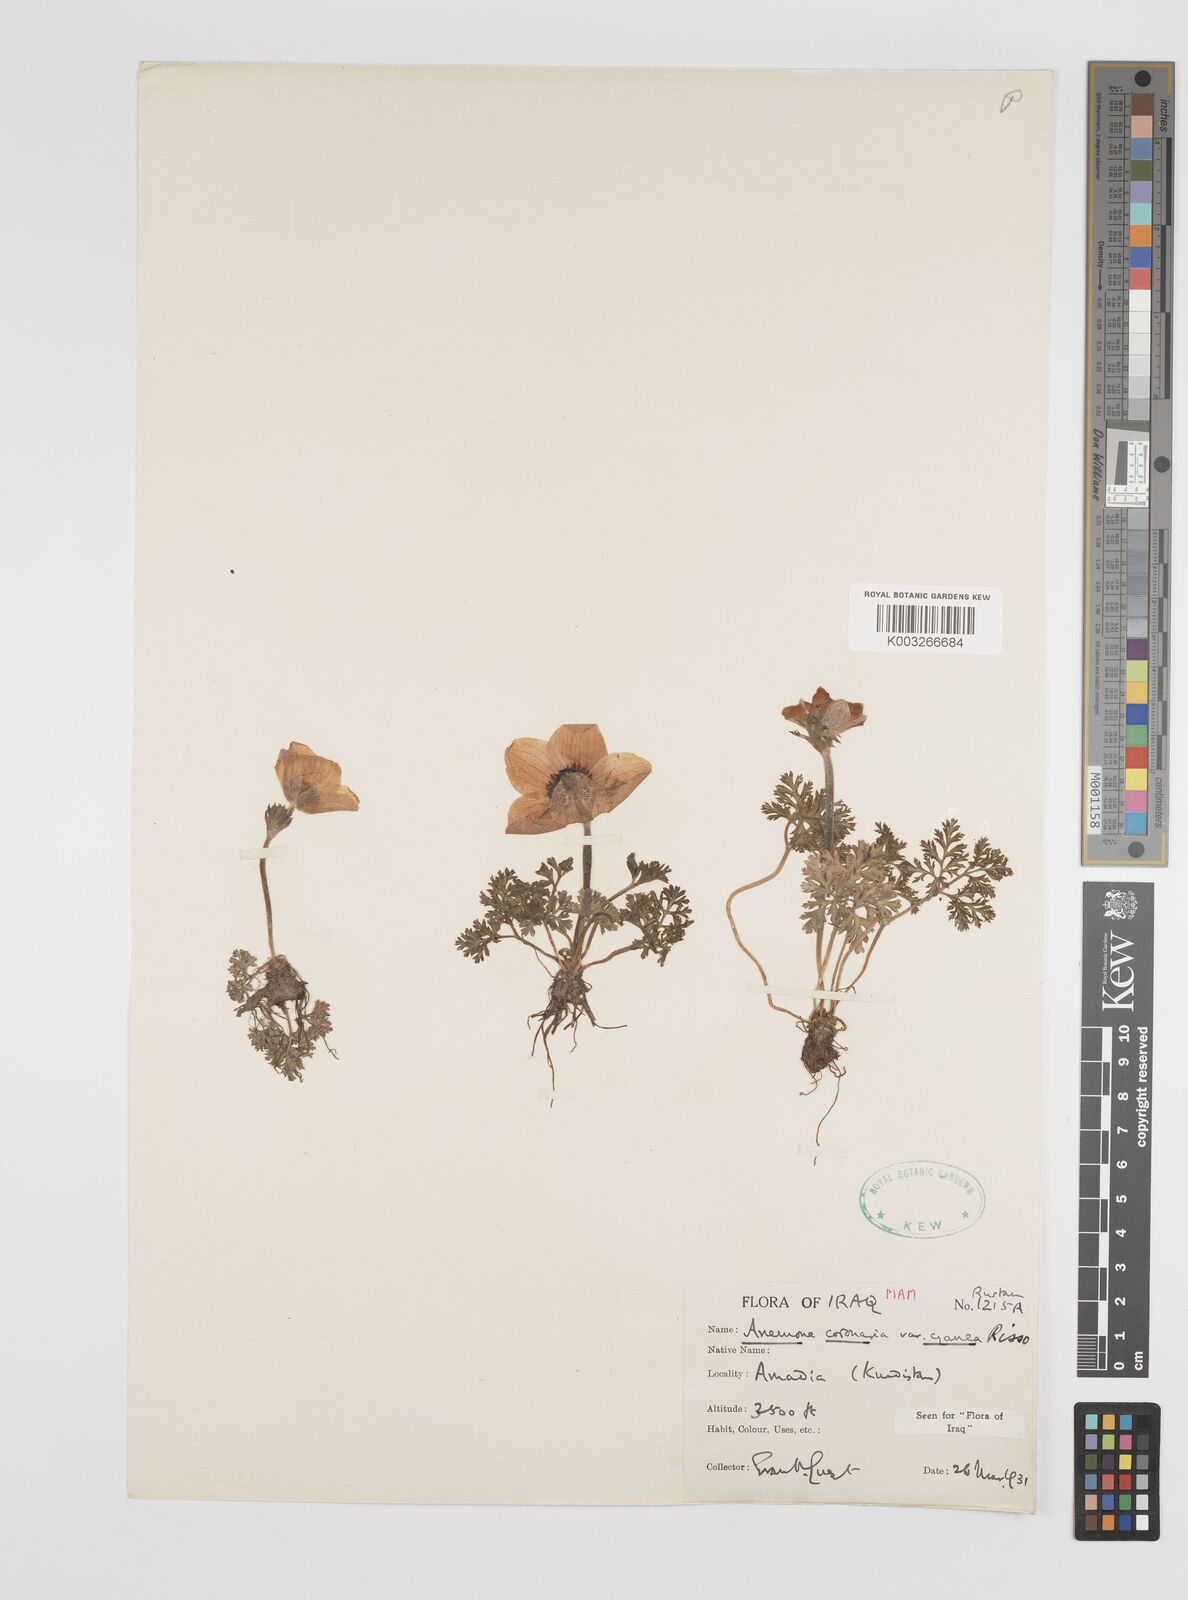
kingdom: Plantae
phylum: Tracheophyta
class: Magnoliopsida
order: Ranunculales
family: Ranunculaceae
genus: Anemone
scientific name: Anemone coronaria
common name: Poppy anemone
